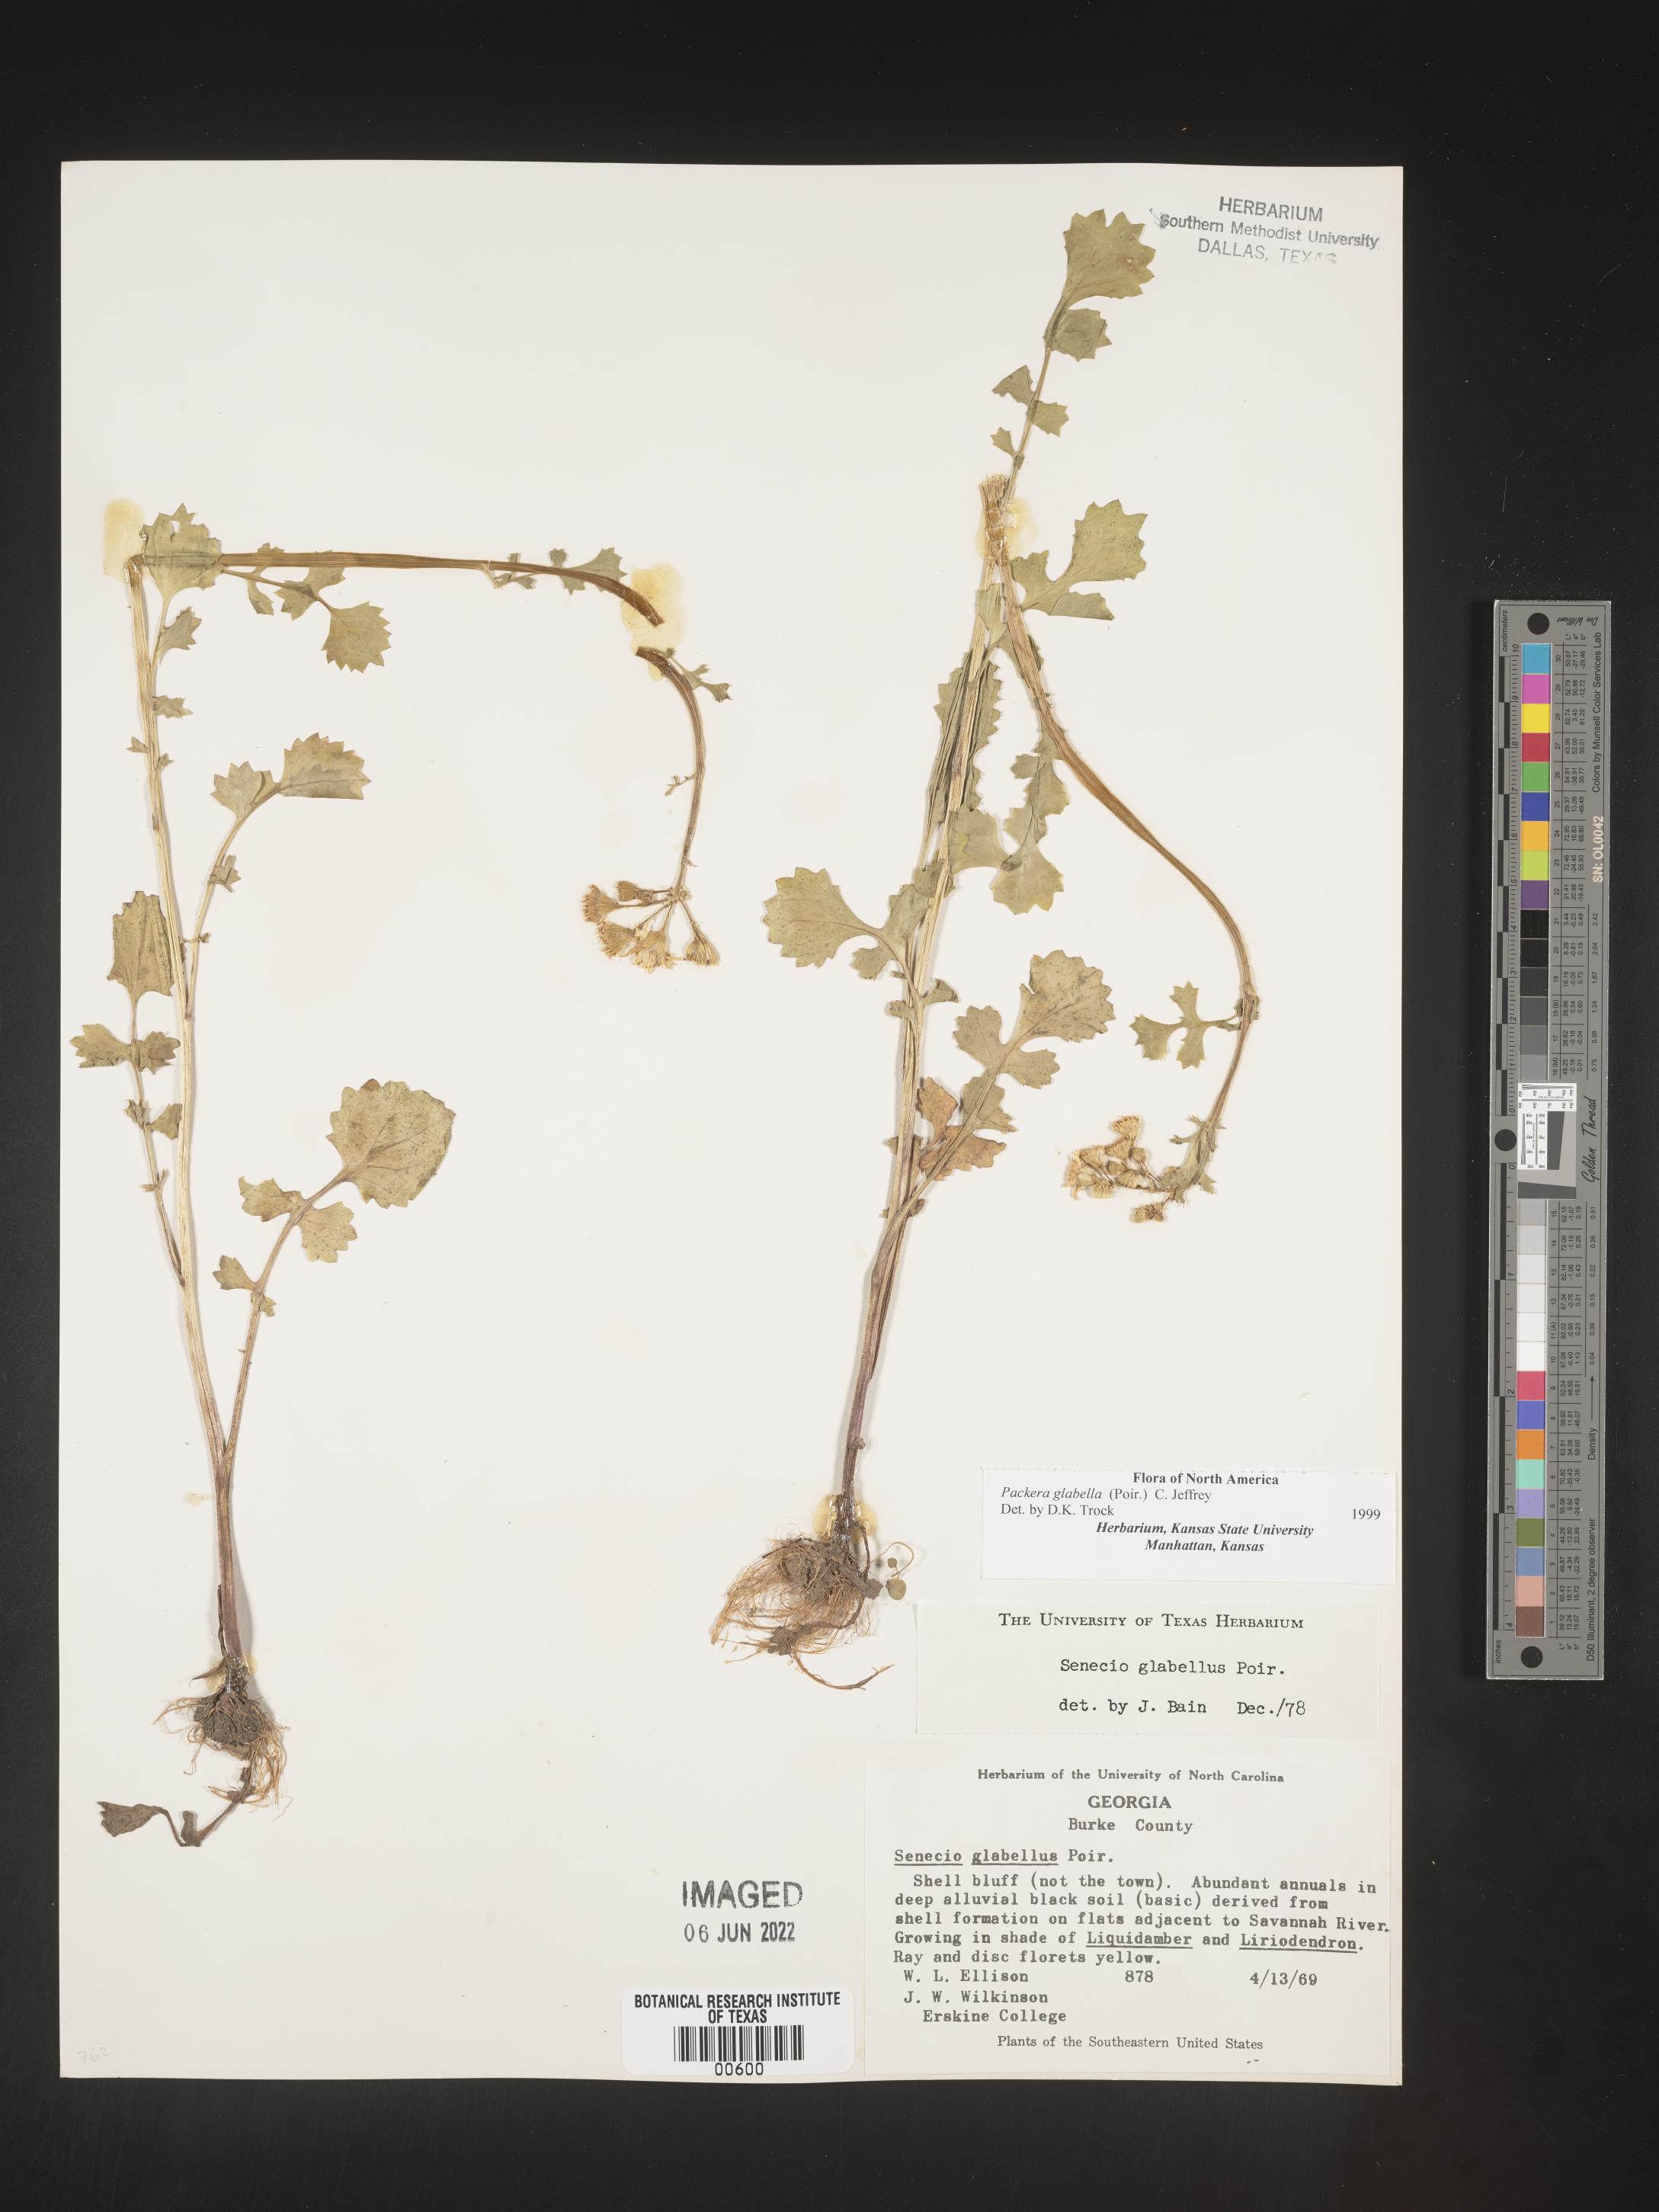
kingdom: Plantae
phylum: Tracheophyta
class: Magnoliopsida
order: Asterales
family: Asteraceae
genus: Packera
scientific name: Packera glabella
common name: Butterweed
